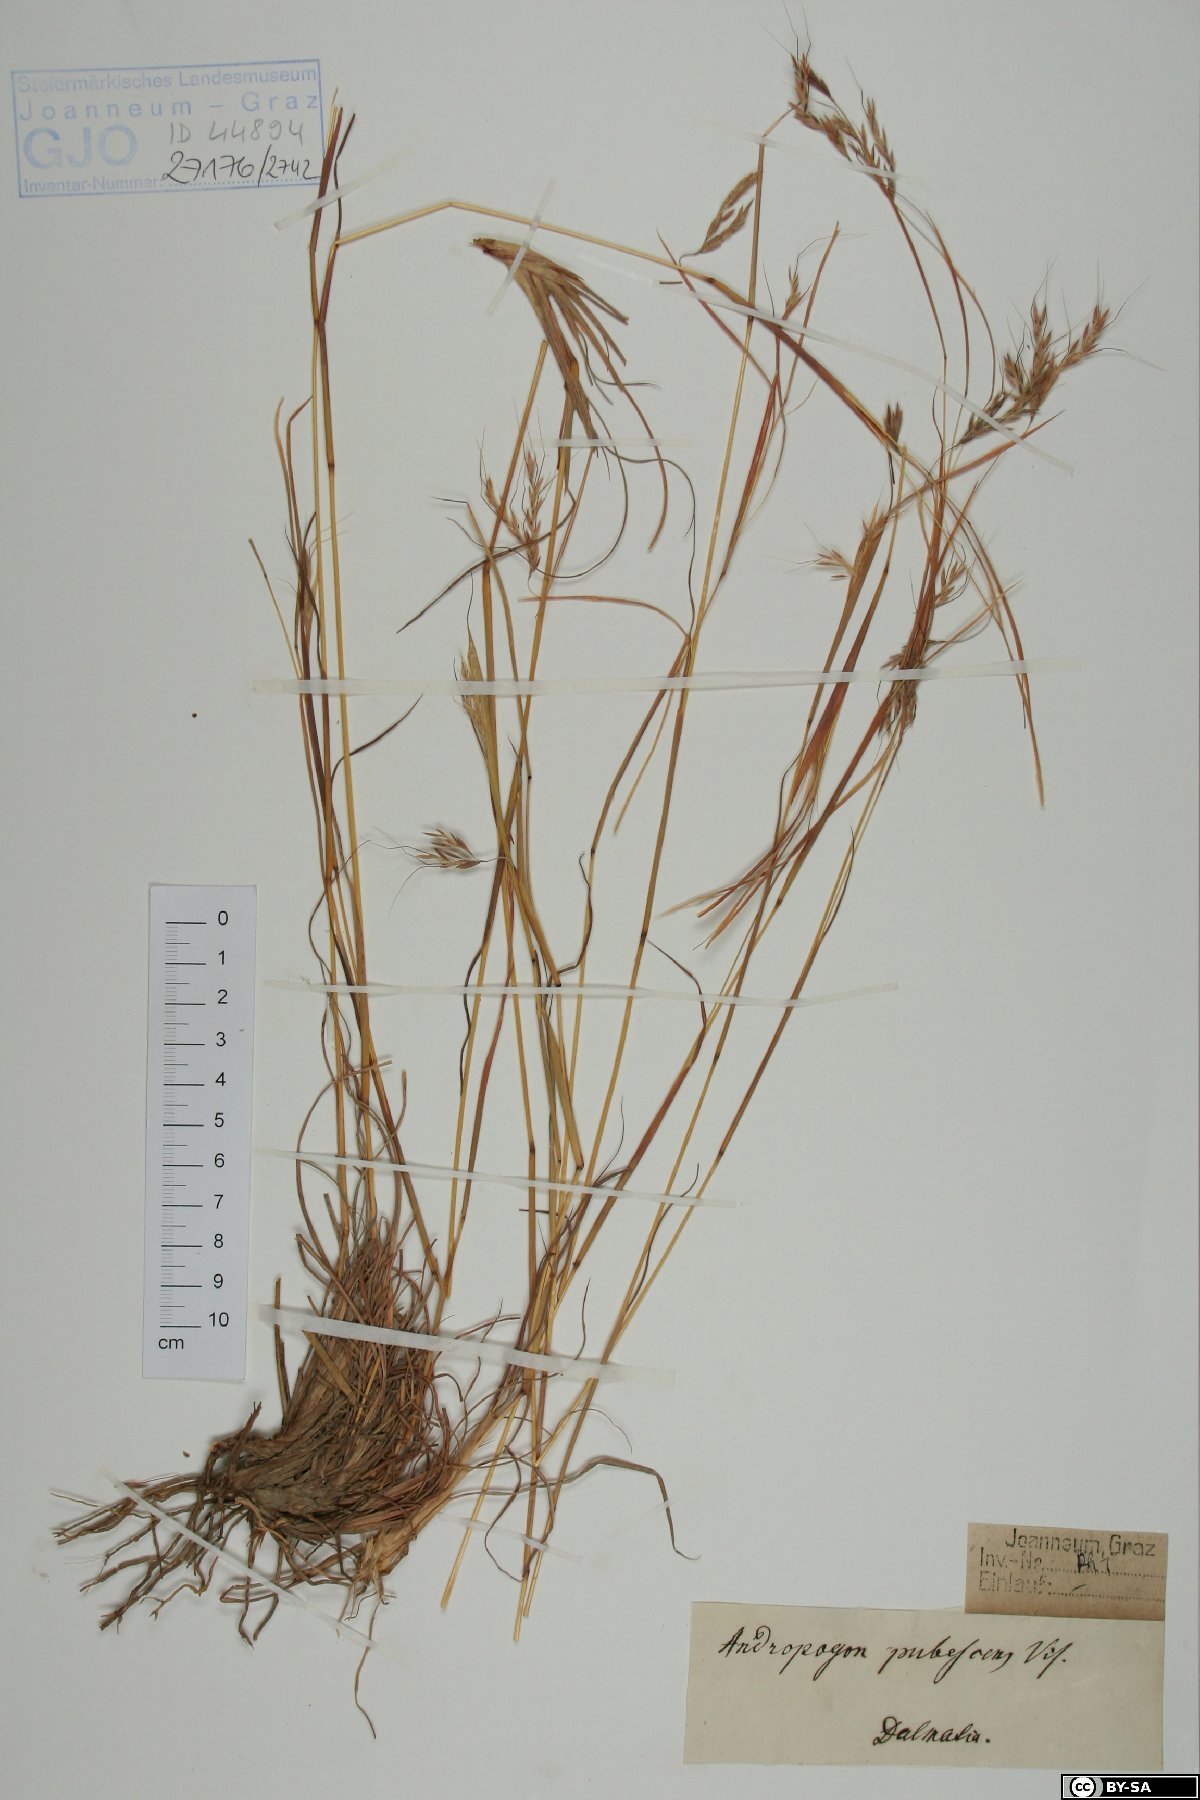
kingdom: Plantae
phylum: Tracheophyta
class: Liliopsida
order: Poales
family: Poaceae
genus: Hyparrhenia
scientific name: Hyparrhenia hirta
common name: Thatching grass
